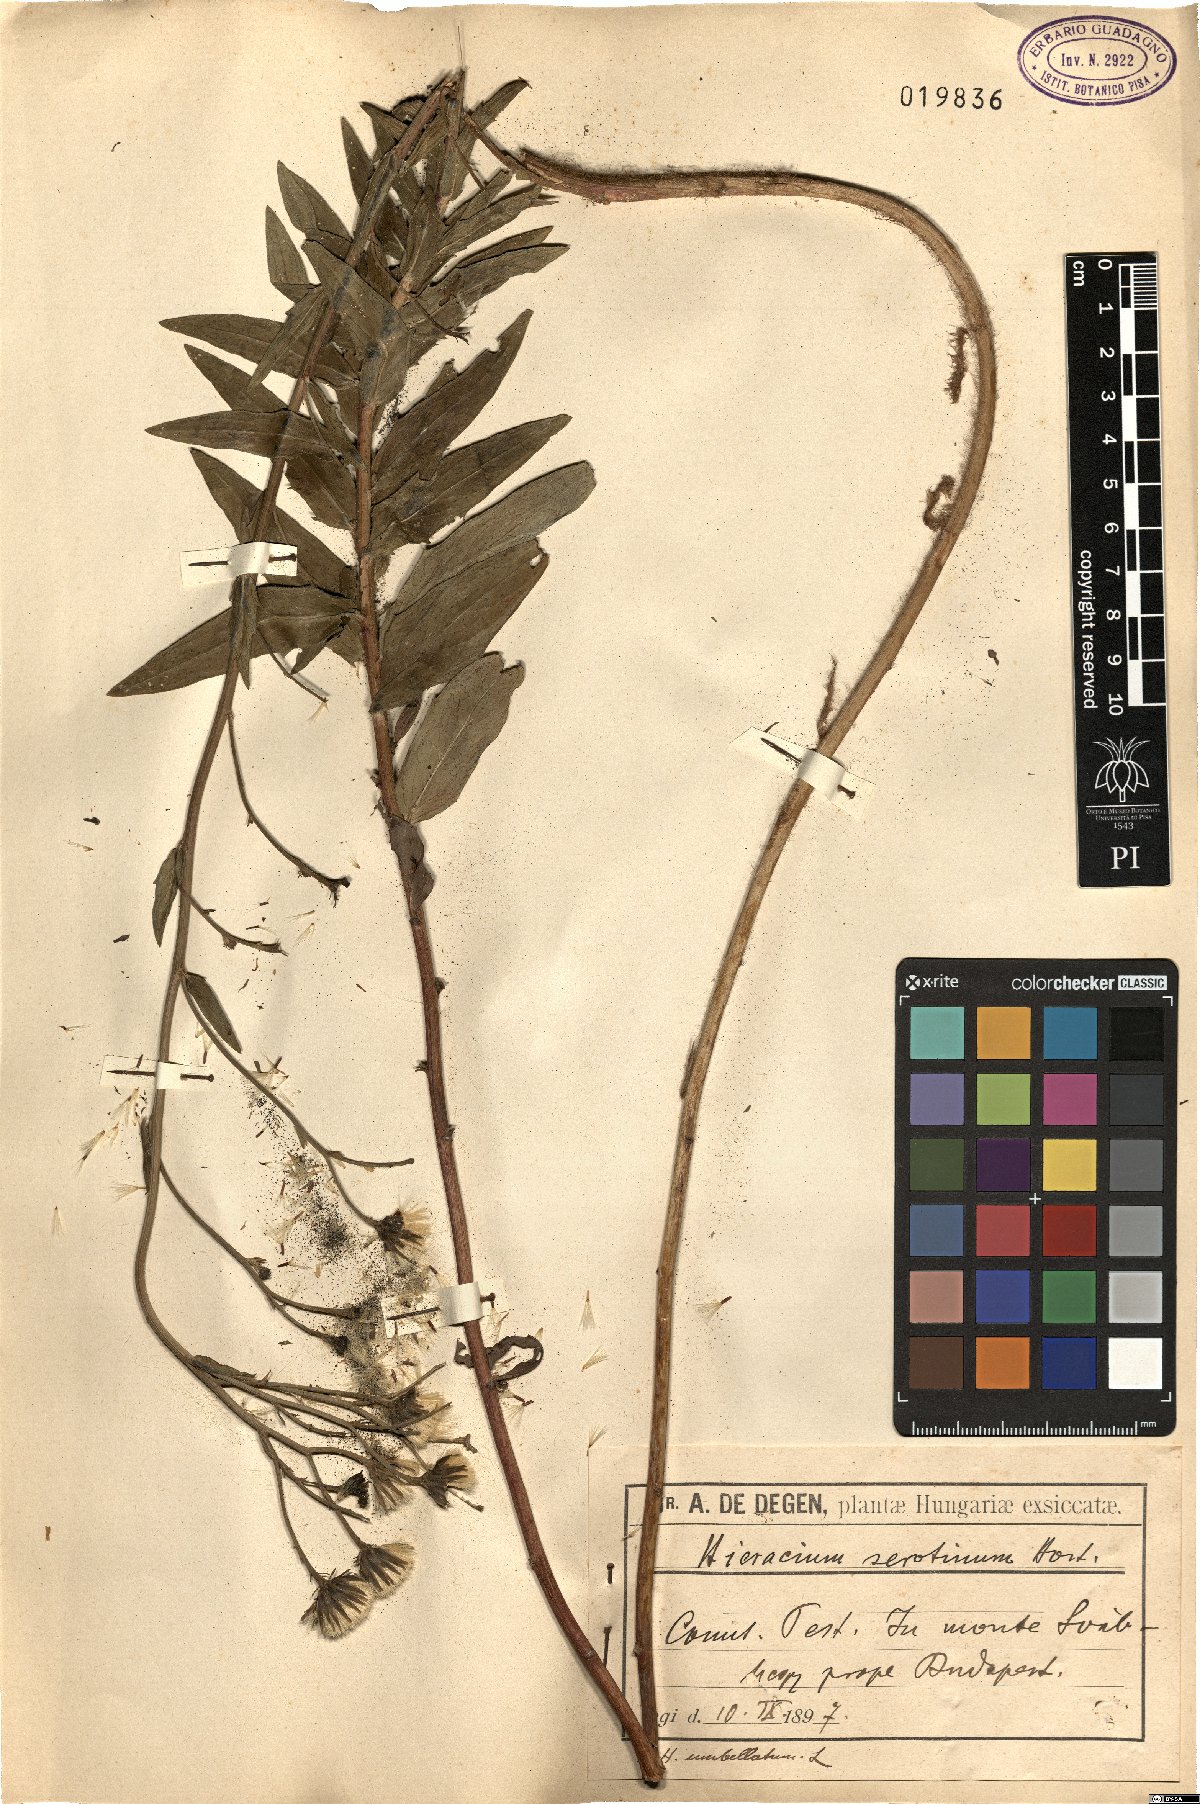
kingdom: Plantae
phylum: Tracheophyta
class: Magnoliopsida
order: Asterales
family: Asteraceae
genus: Hieracium
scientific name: Hieracium umbellatum
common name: Northern hawkweed
